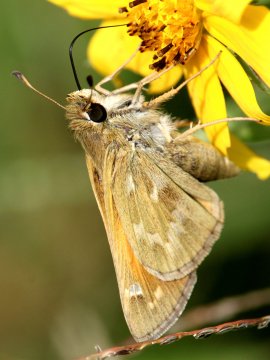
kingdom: Animalia
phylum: Arthropoda
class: Insecta
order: Lepidoptera
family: Hesperiidae
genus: Atalopedes
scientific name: Atalopedes campestris
